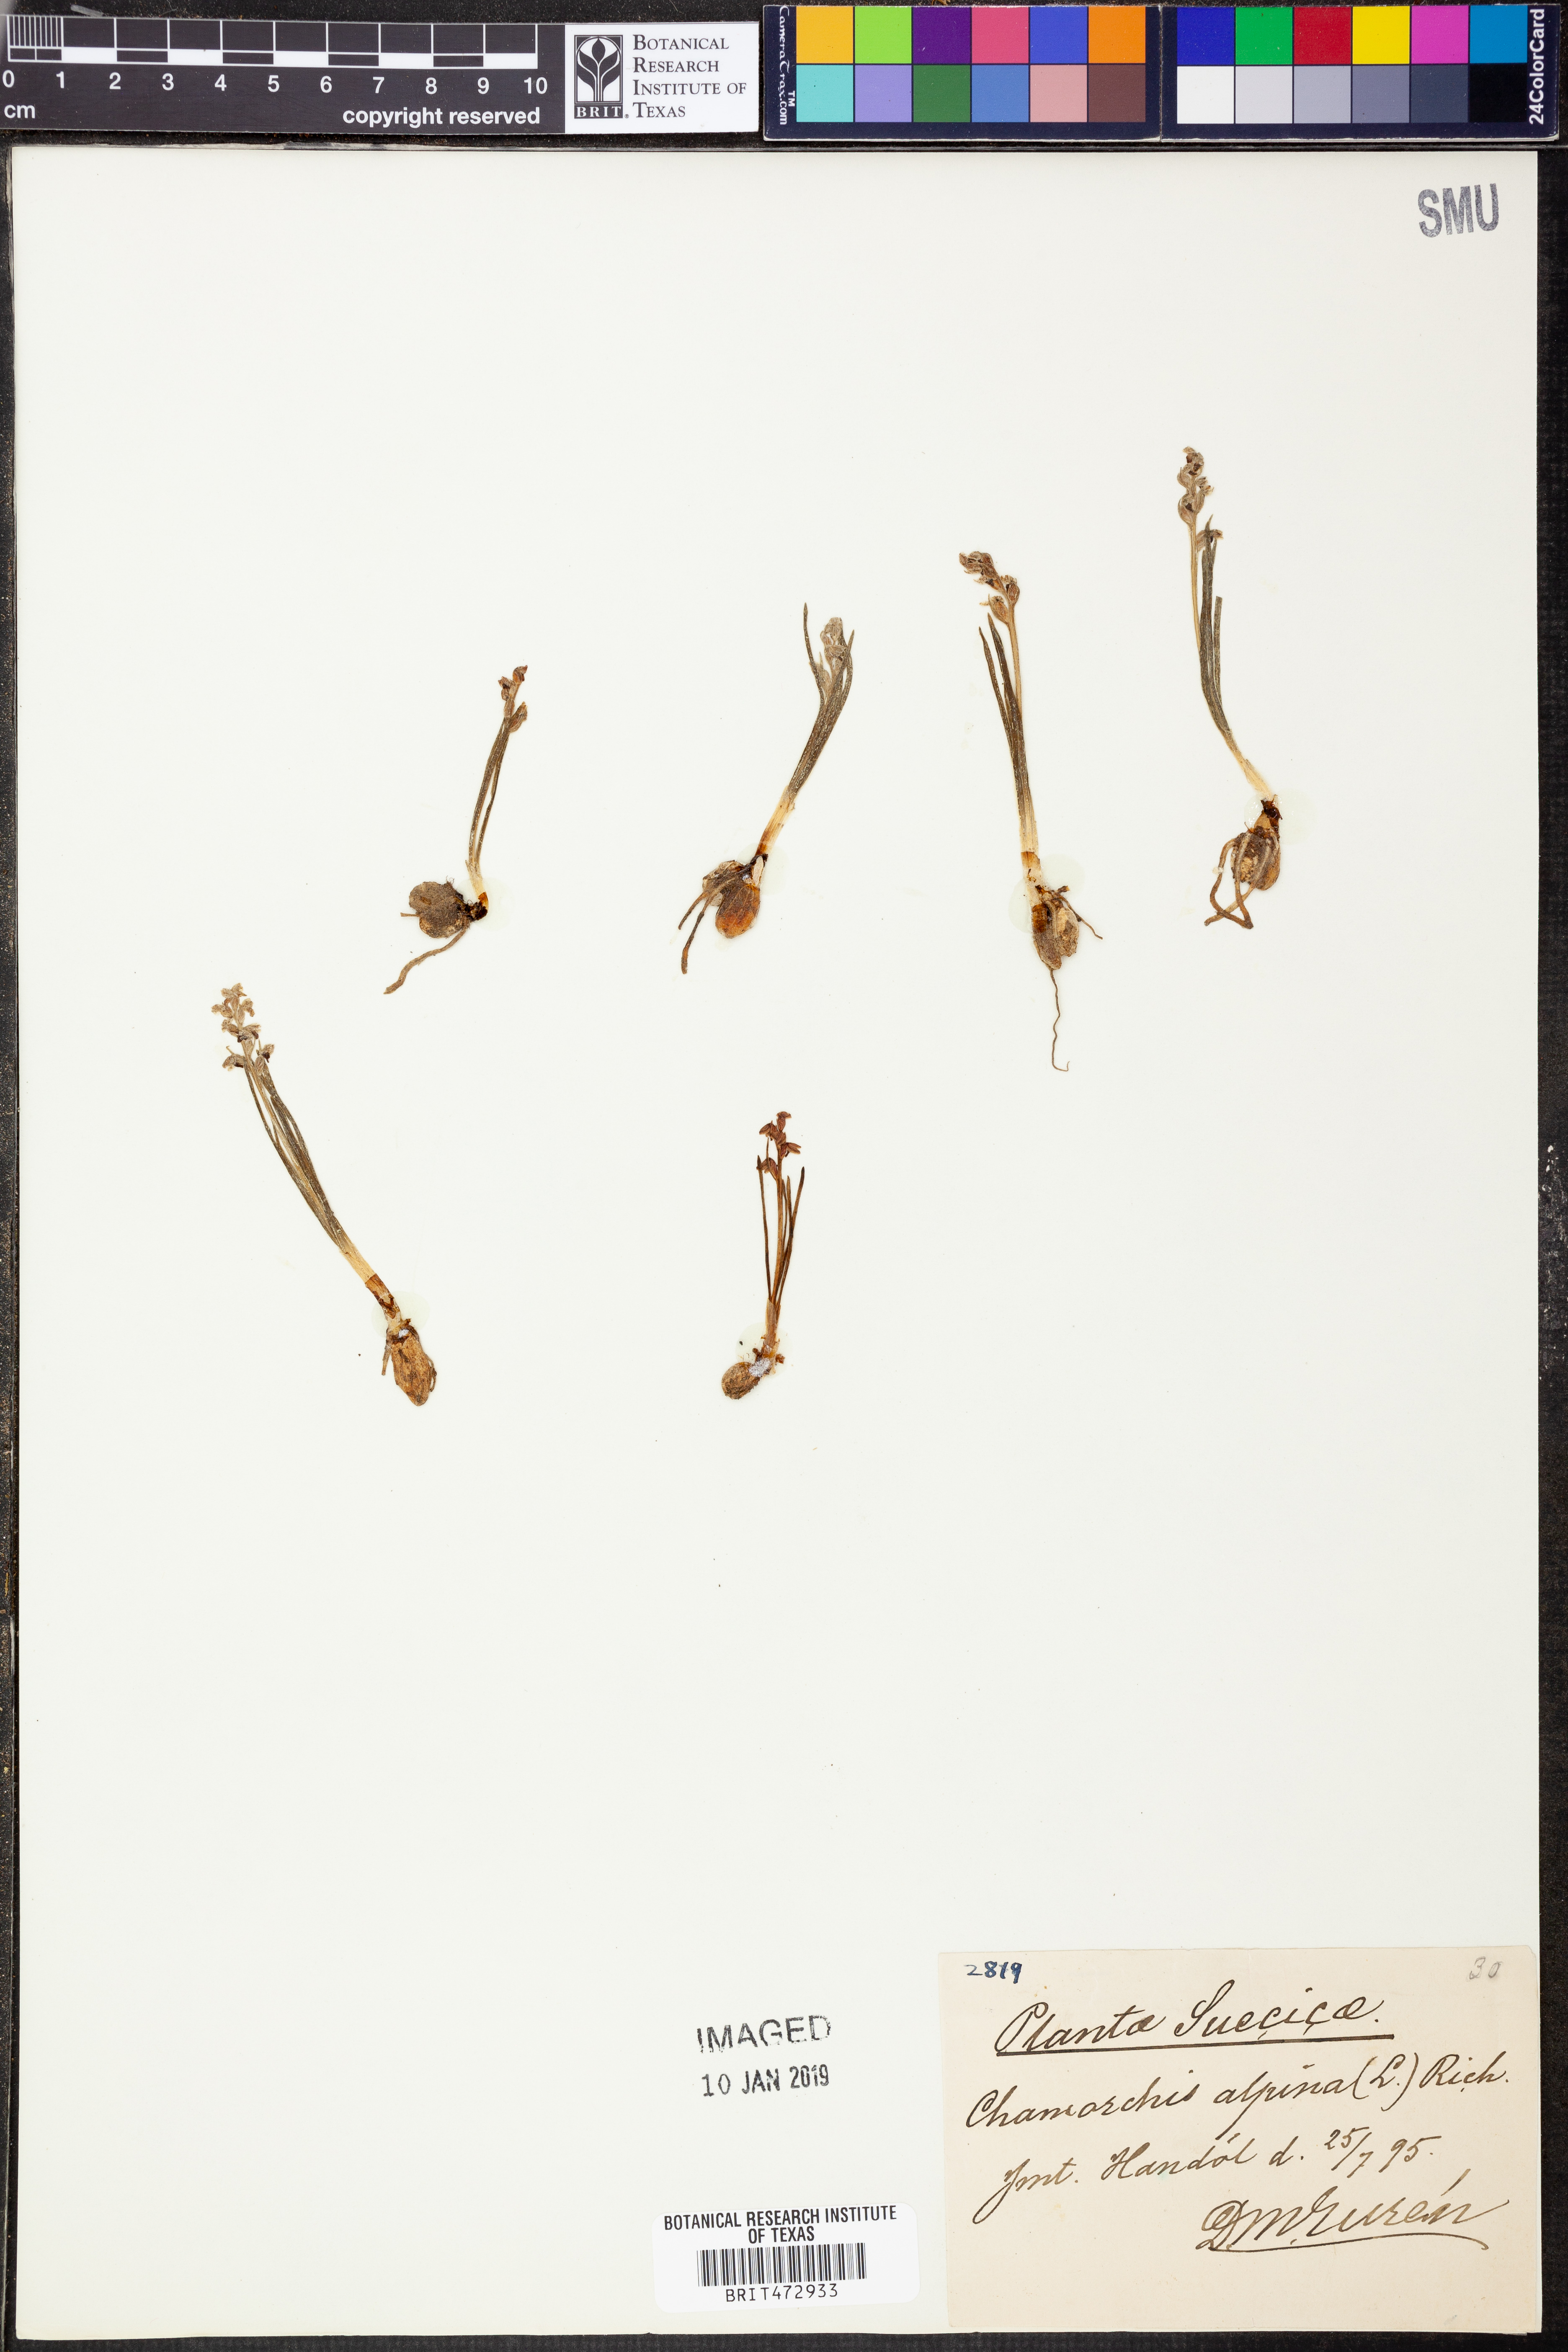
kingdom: Plantae
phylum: Tracheophyta
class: Liliopsida
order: Asparagales
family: Orchidaceae
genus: Chamorchis
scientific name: Chamorchis alpina
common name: Alpine chamorchis
